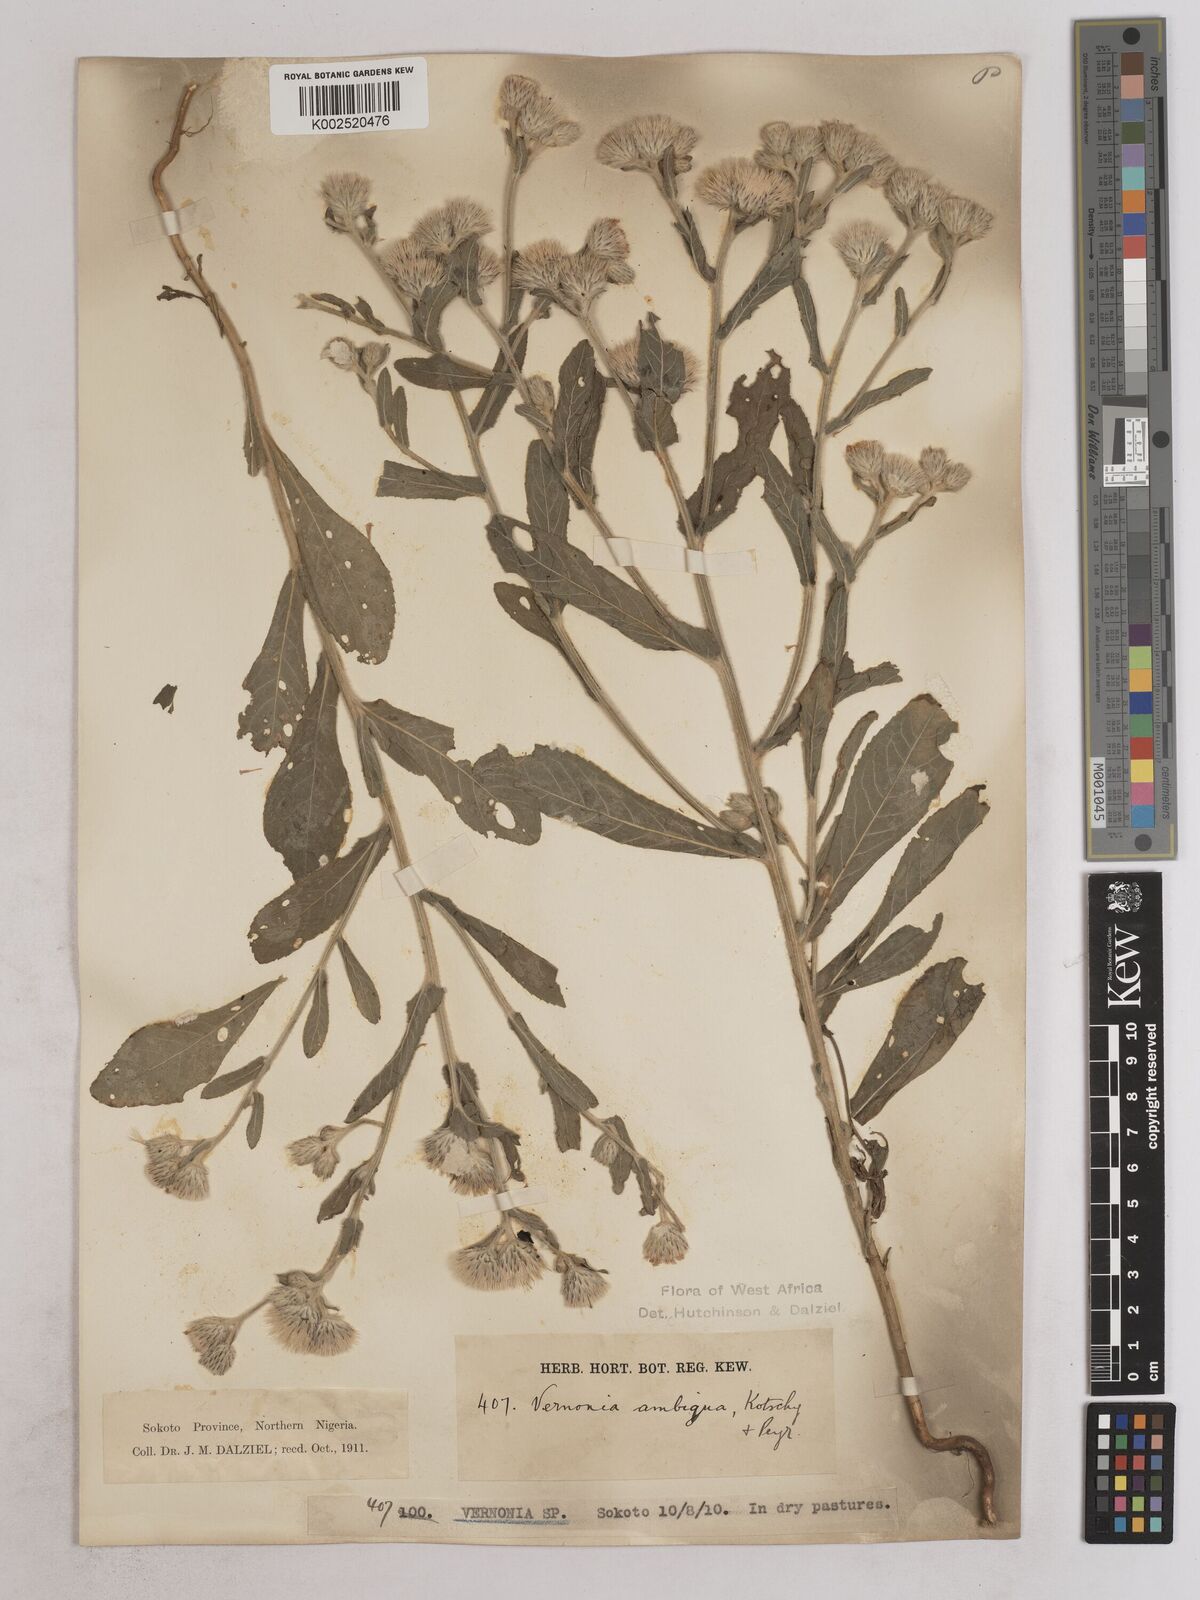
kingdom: Plantae
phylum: Tracheophyta
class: Magnoliopsida
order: Asterales
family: Asteraceae
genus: Vernoniastrum
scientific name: Vernoniastrum ambiguum
